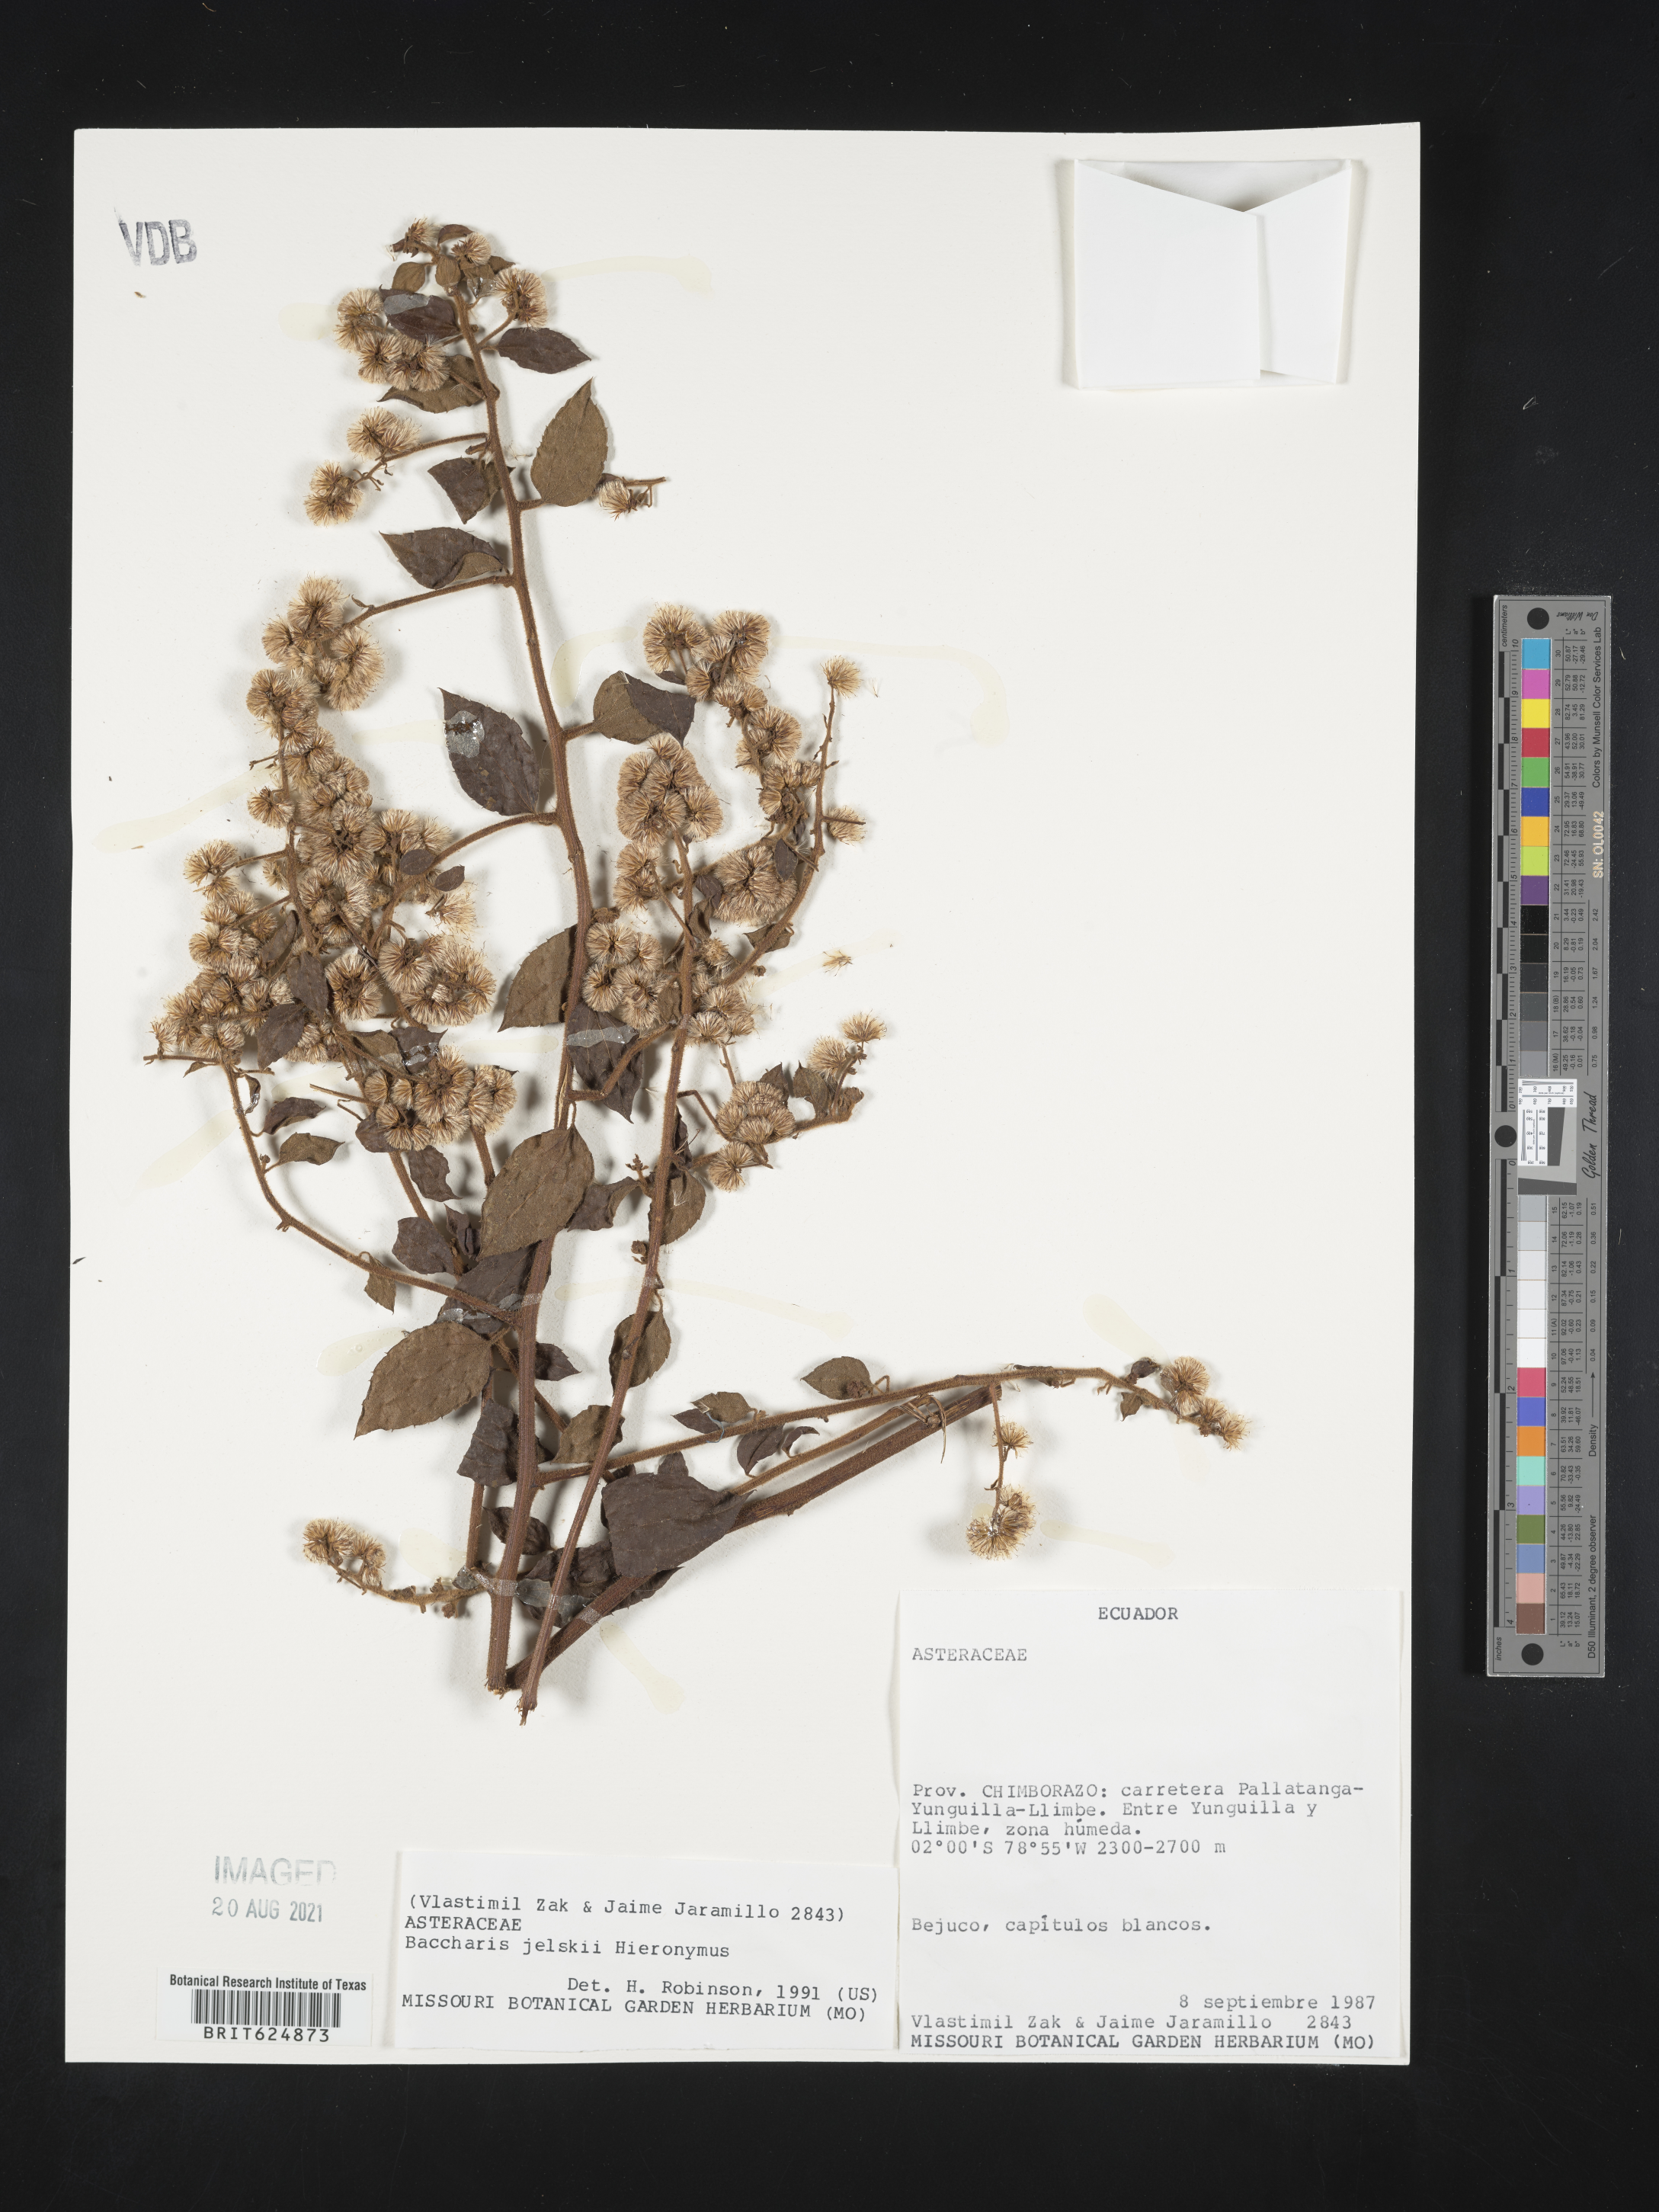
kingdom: Plantae
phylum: Tracheophyta
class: Magnoliopsida
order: Asterales
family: Asteraceae
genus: Baccharis
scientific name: Baccharis jelskii
